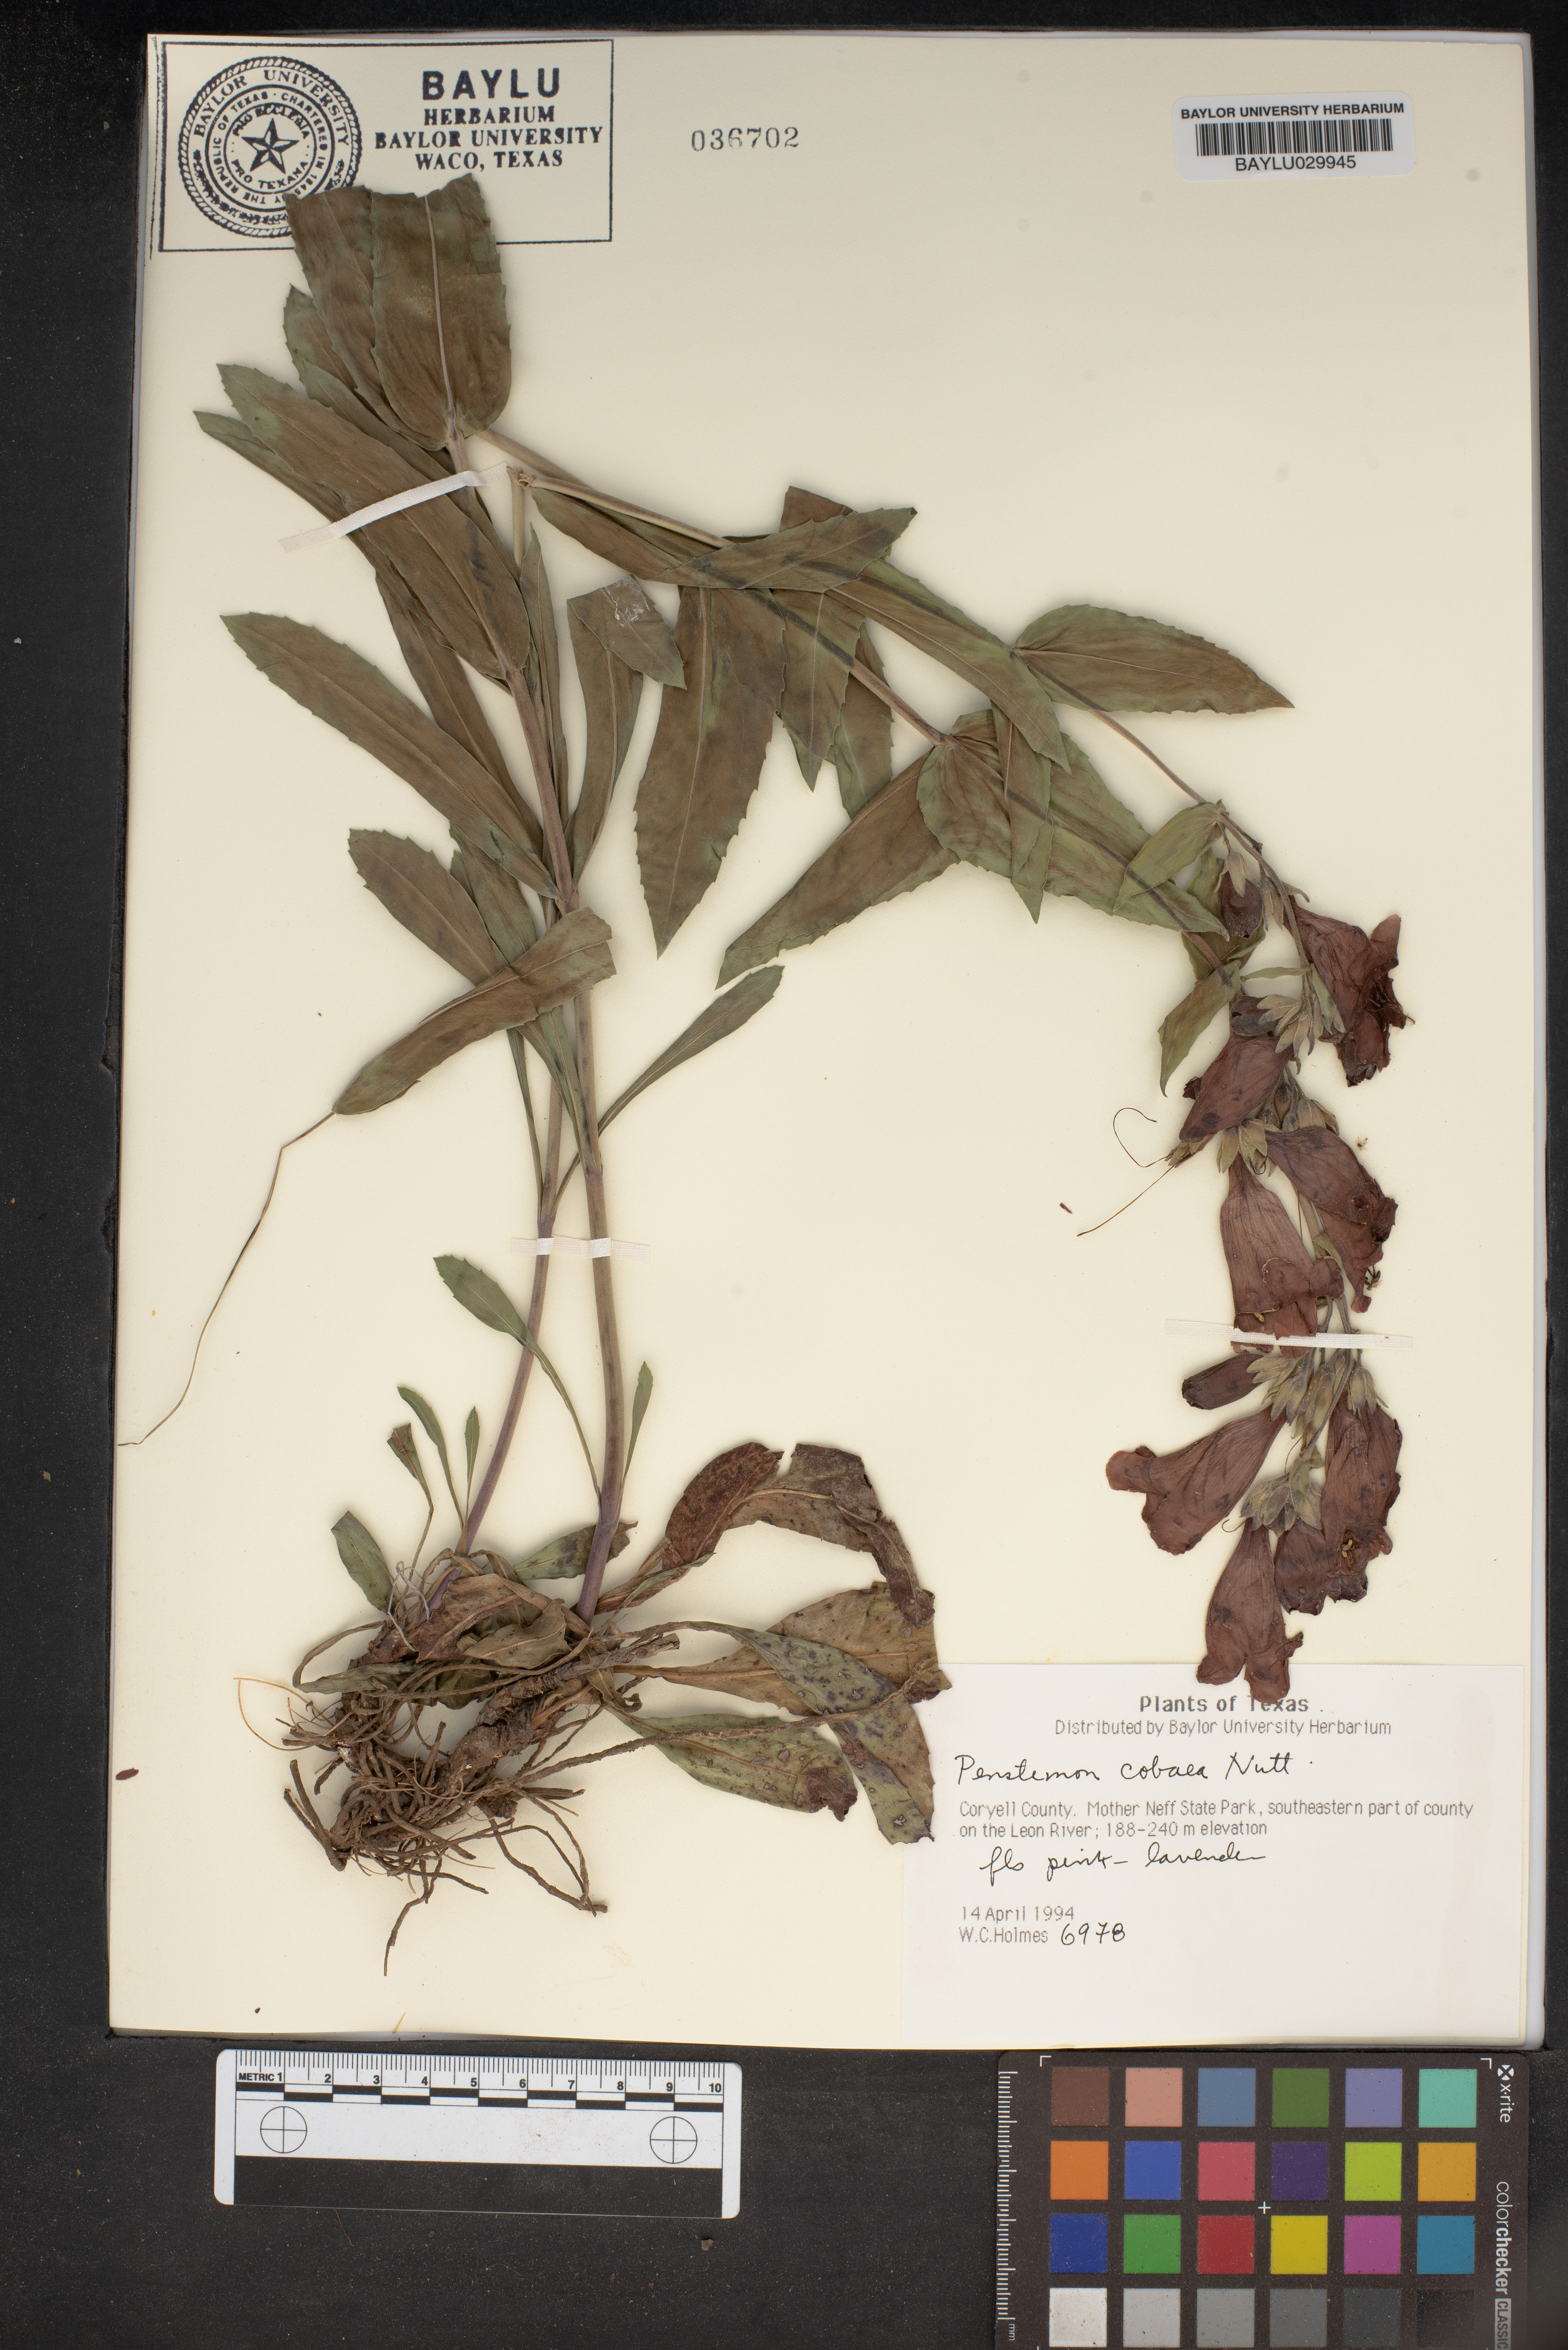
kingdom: Plantae
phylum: Tracheophyta
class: Magnoliopsida
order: Lamiales
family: Plantaginaceae
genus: Penstemon
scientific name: Penstemon cobaea
